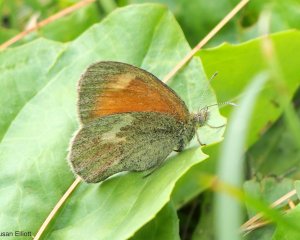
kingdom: Animalia
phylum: Arthropoda
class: Insecta
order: Lepidoptera
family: Nymphalidae
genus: Coenonympha
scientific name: Coenonympha tullia
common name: Large Heath
